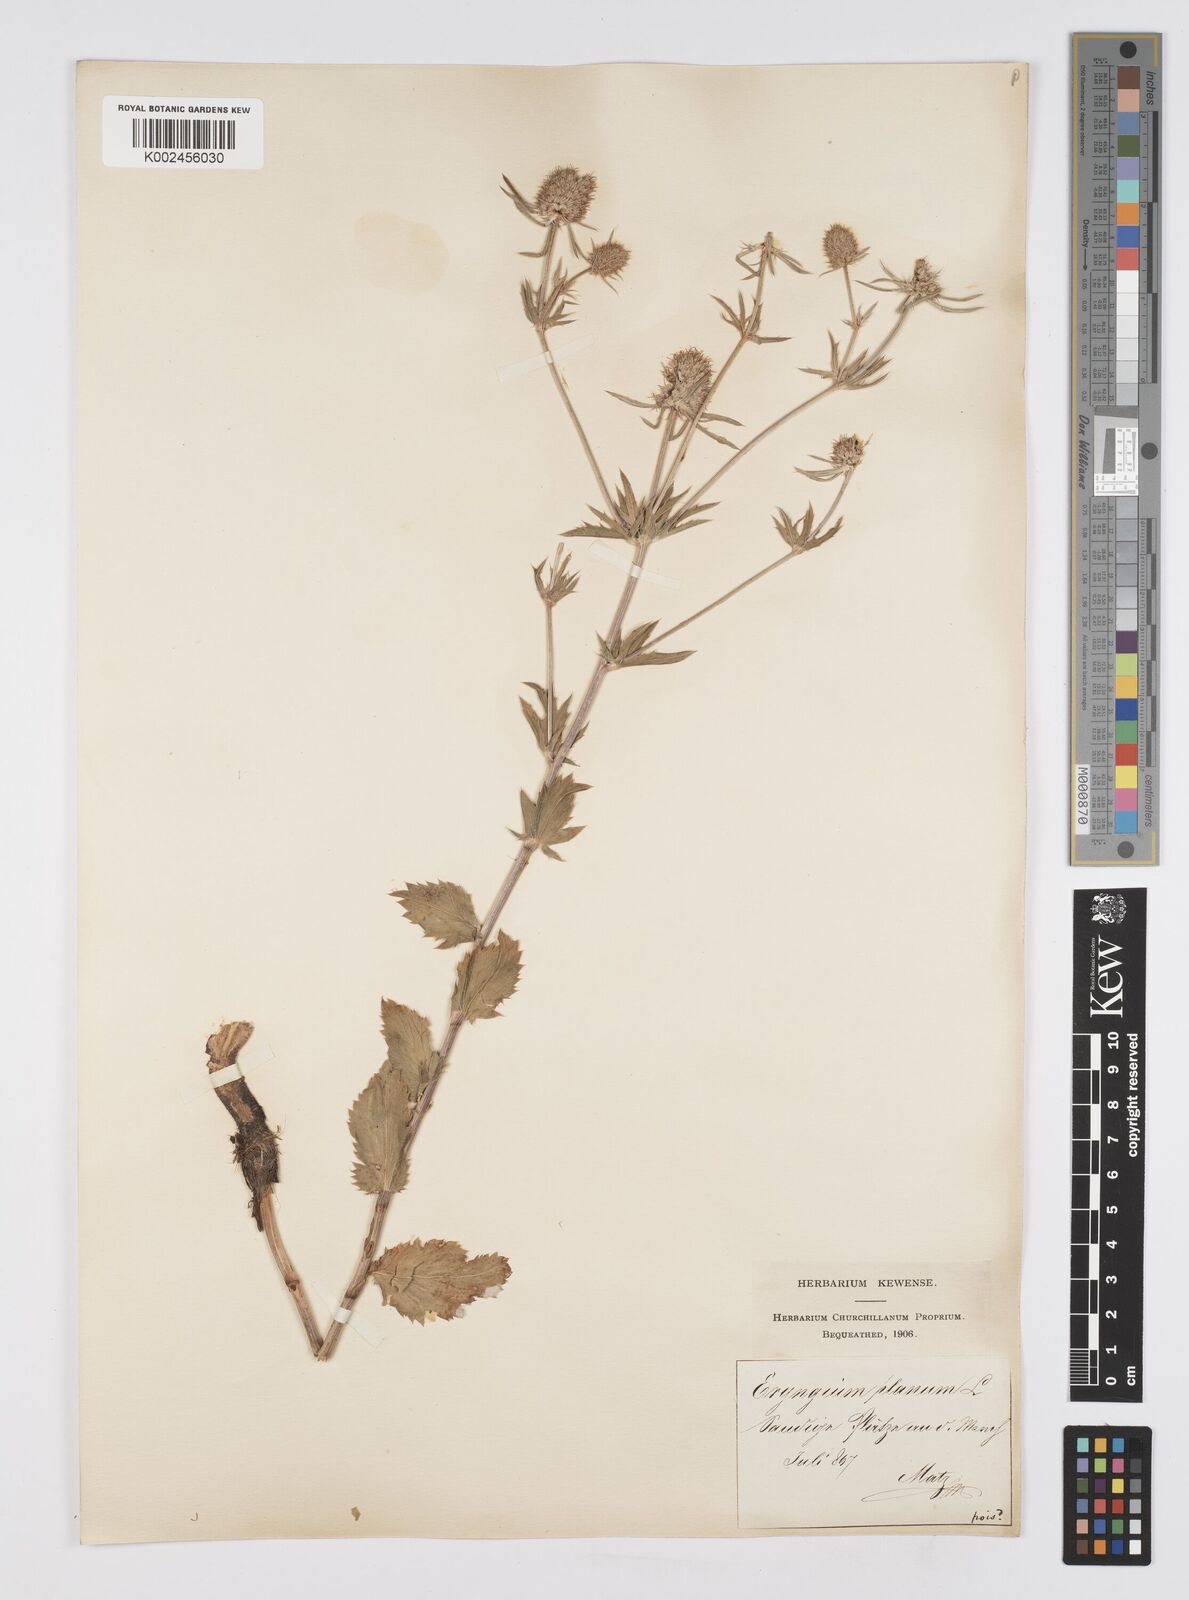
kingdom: Plantae
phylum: Tracheophyta
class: Magnoliopsida
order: Apiales
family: Apiaceae
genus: Eryngium
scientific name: Eryngium planum
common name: Blue eryngo
